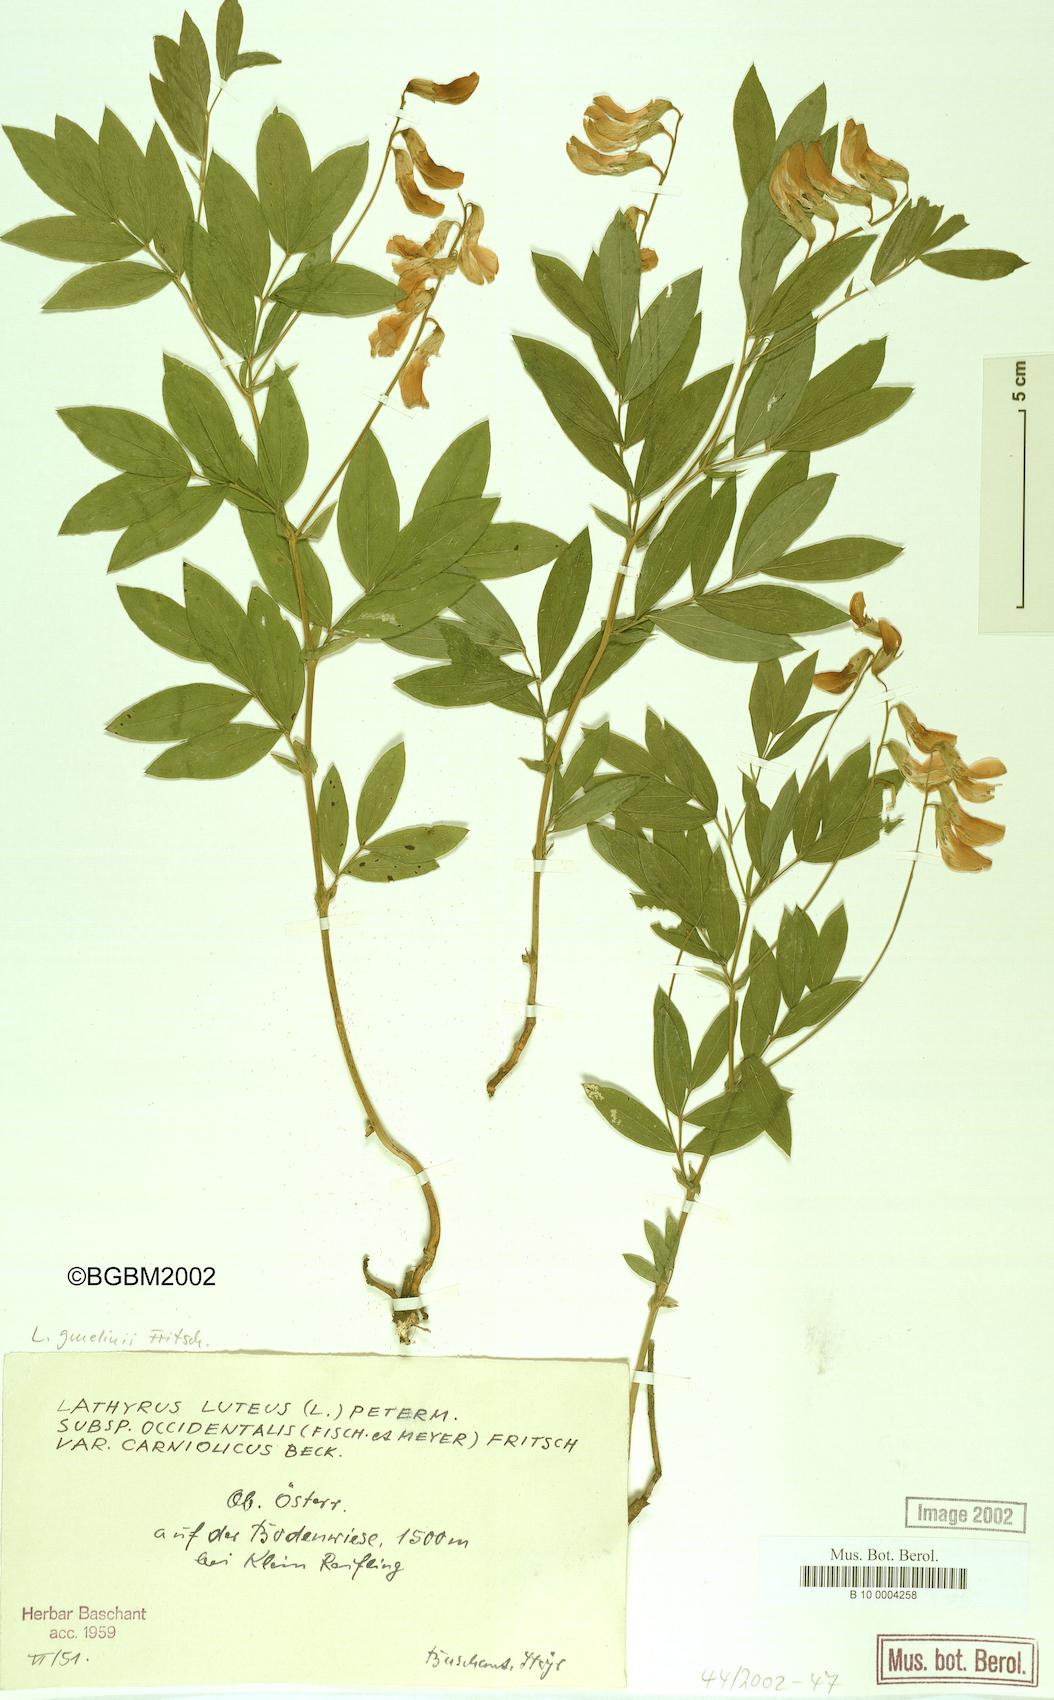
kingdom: Plantae
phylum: Tracheophyta
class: Magnoliopsida
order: Fabales
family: Fabaceae
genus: Lathyrus
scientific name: Lathyrus gmelinii
